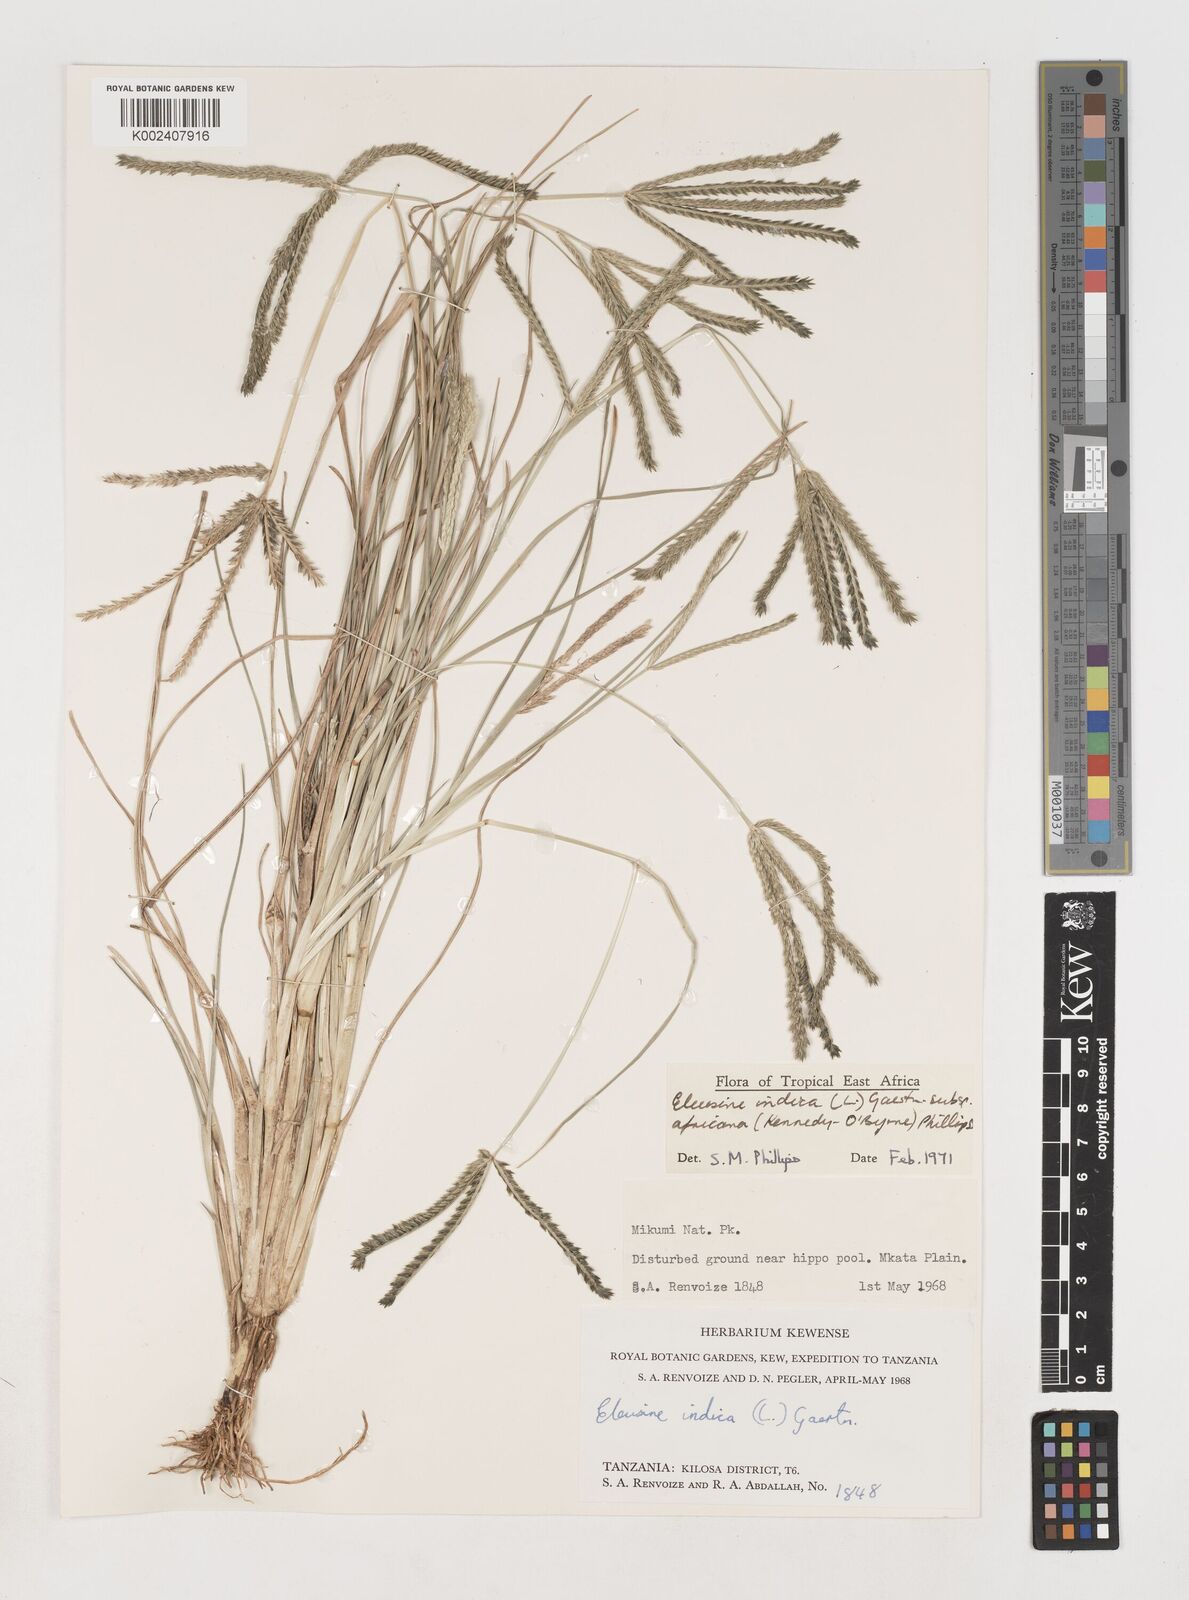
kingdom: Plantae
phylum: Tracheophyta
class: Liliopsida
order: Poales
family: Poaceae
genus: Eleusine
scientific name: Eleusine africana
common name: Wild african finger millet
